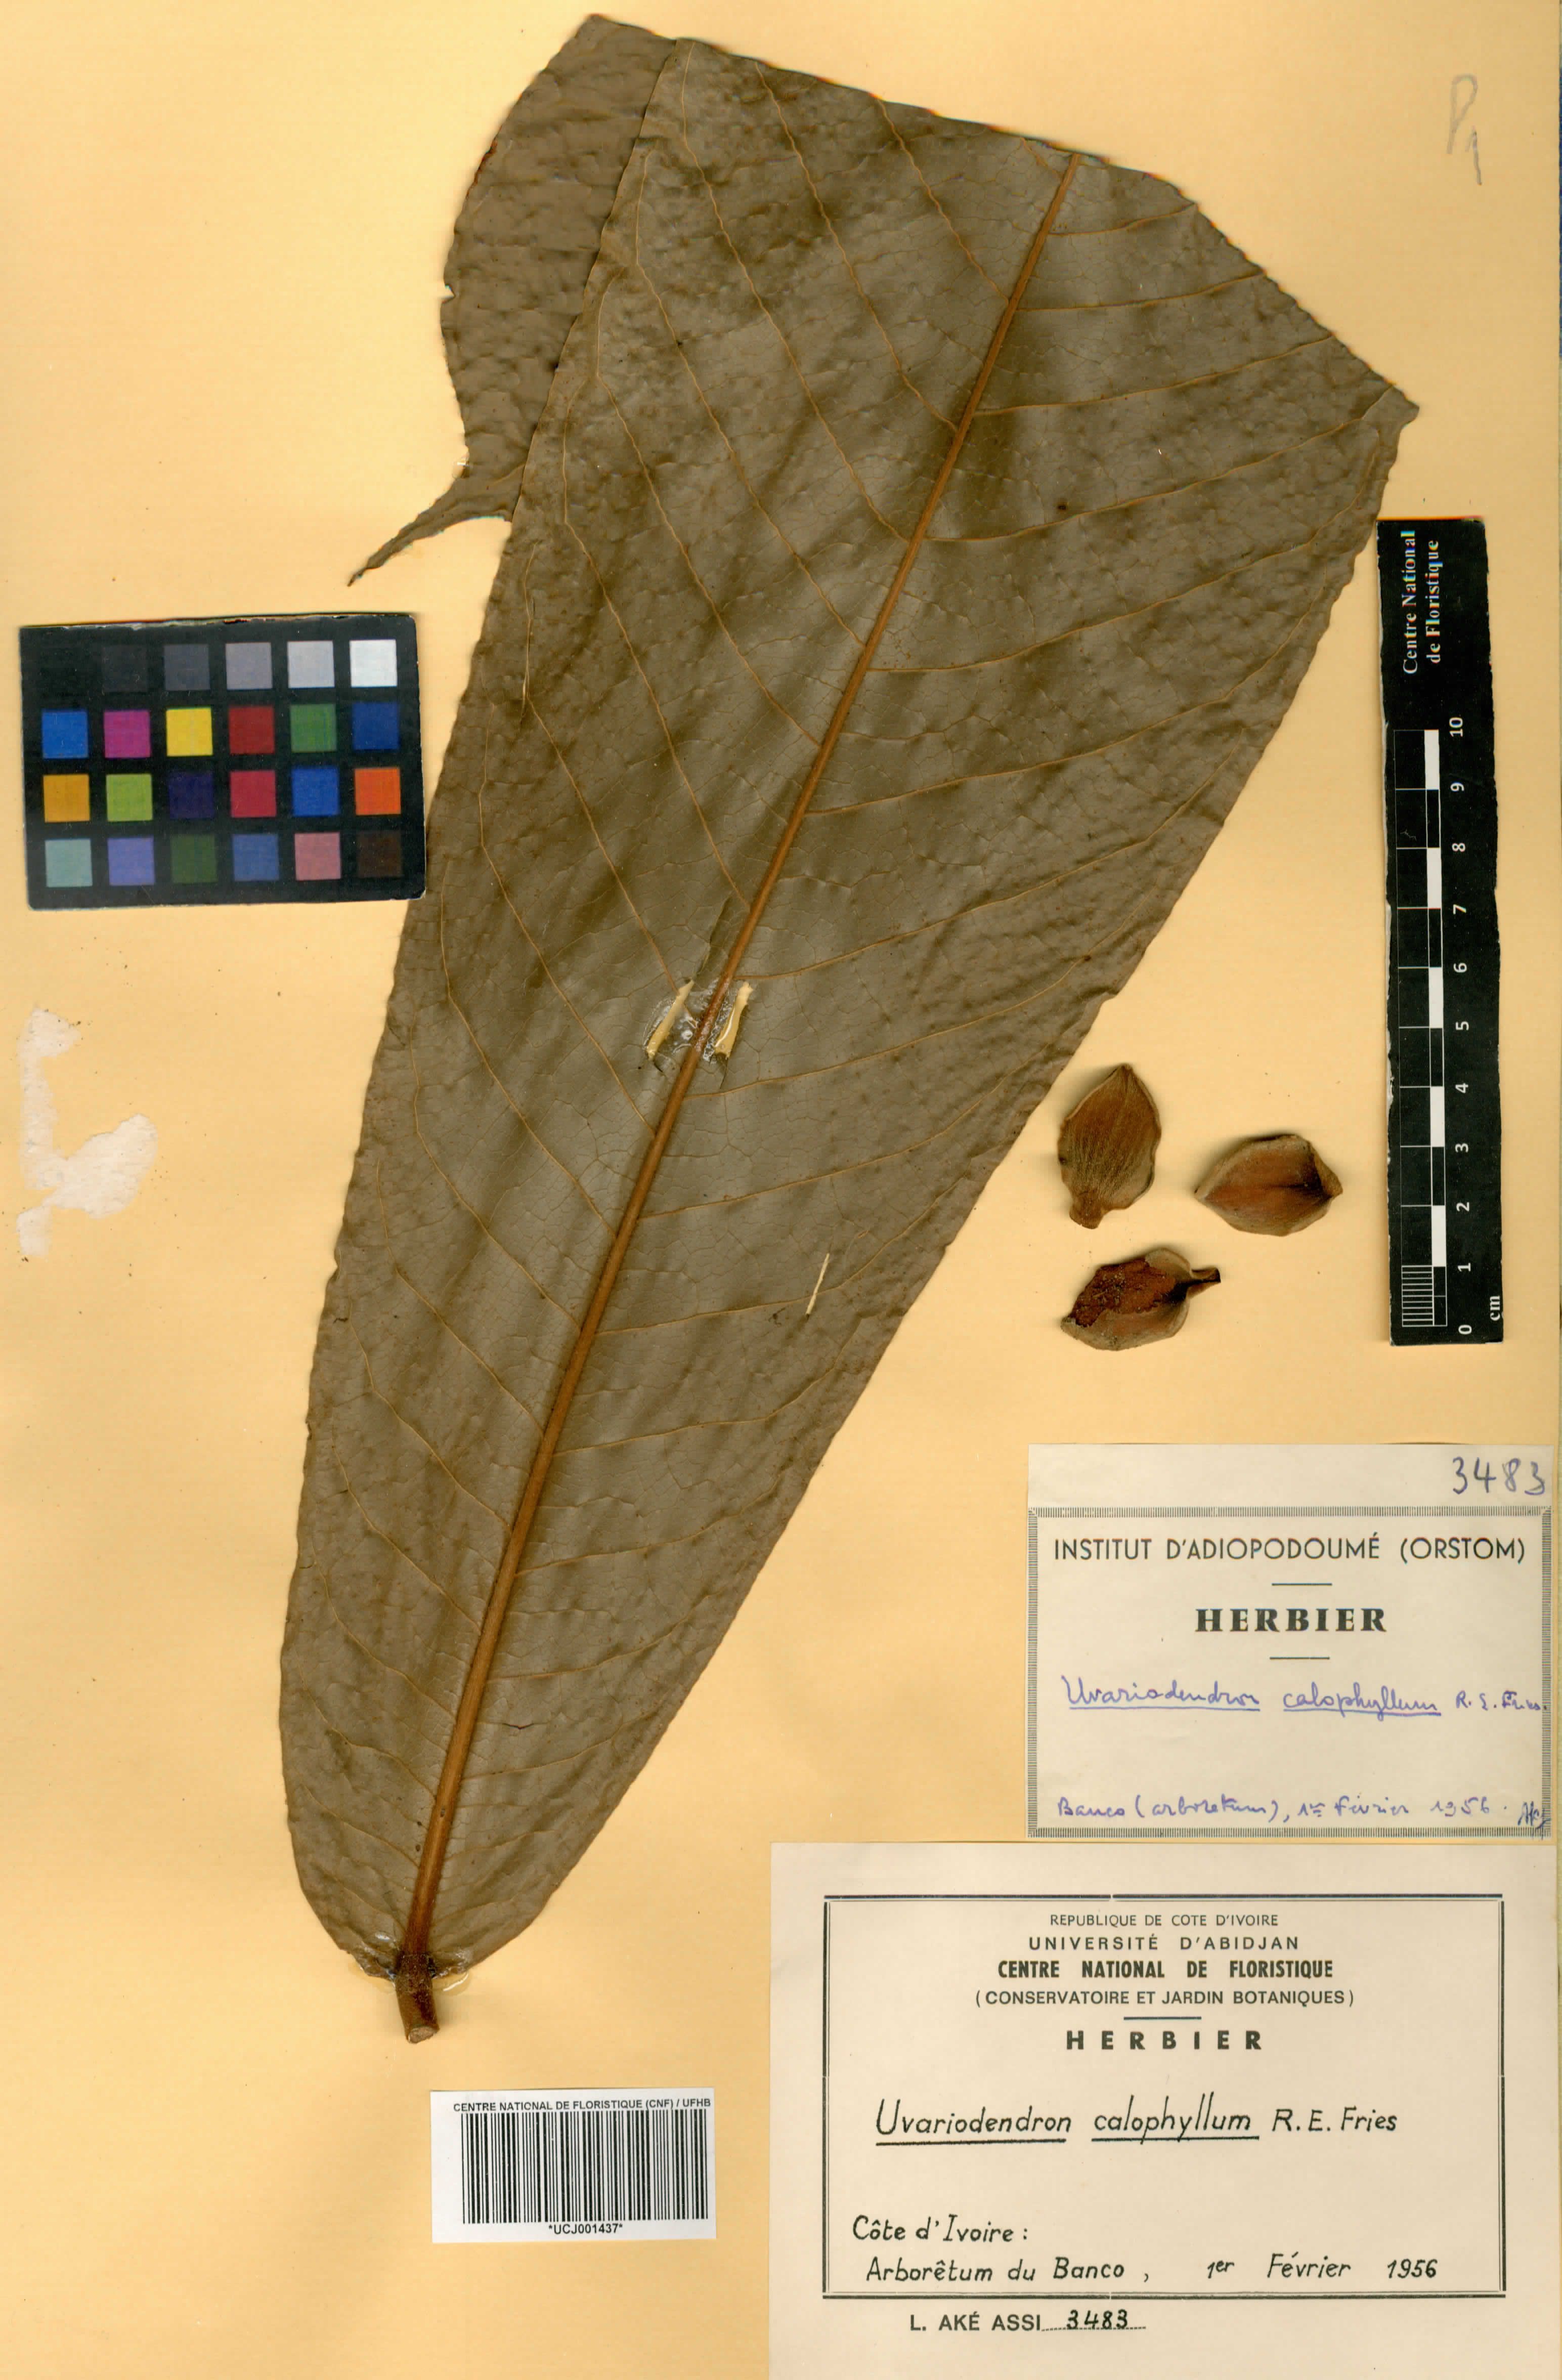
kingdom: Plantae
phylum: Tracheophyta
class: Magnoliopsida
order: Magnoliales
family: Annonaceae
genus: Uvariodendron
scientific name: Uvariodendron calophyllum
